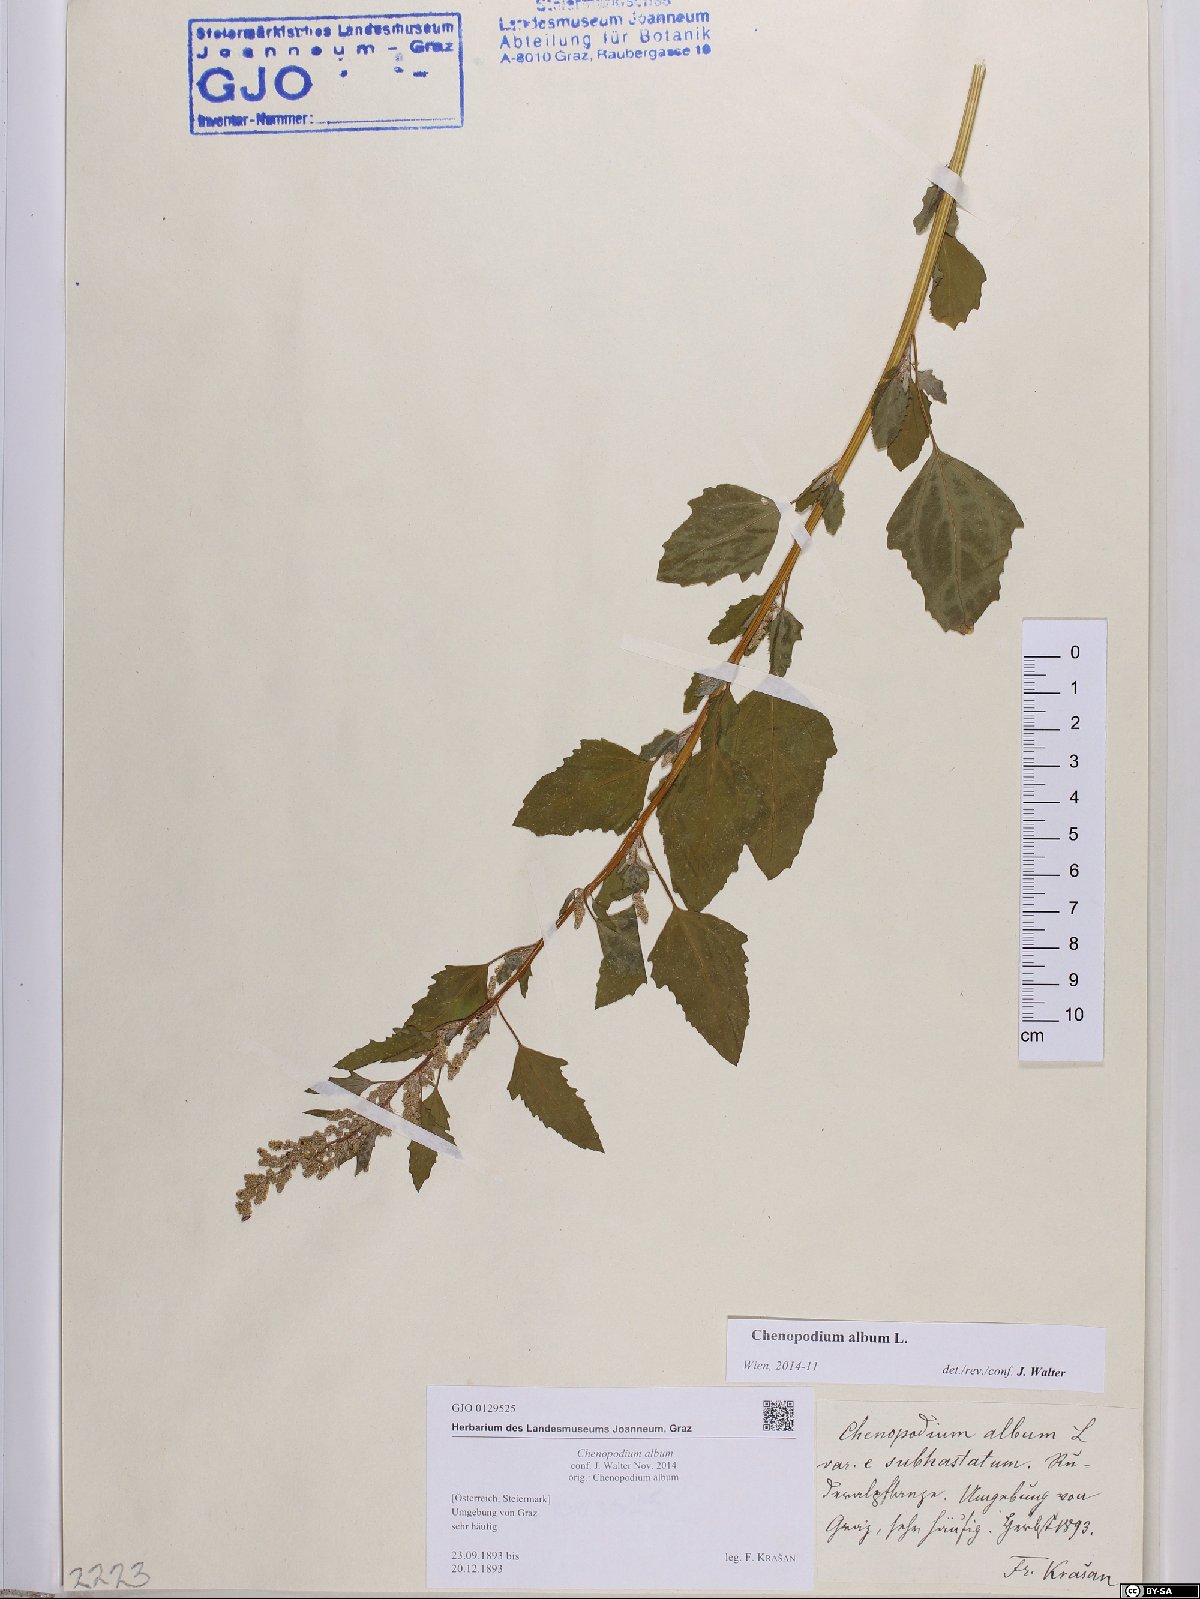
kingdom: Plantae
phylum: Tracheophyta
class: Magnoliopsida
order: Caryophyllales
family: Amaranthaceae
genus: Chenopodium
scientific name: Chenopodium album
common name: Fat-hen
